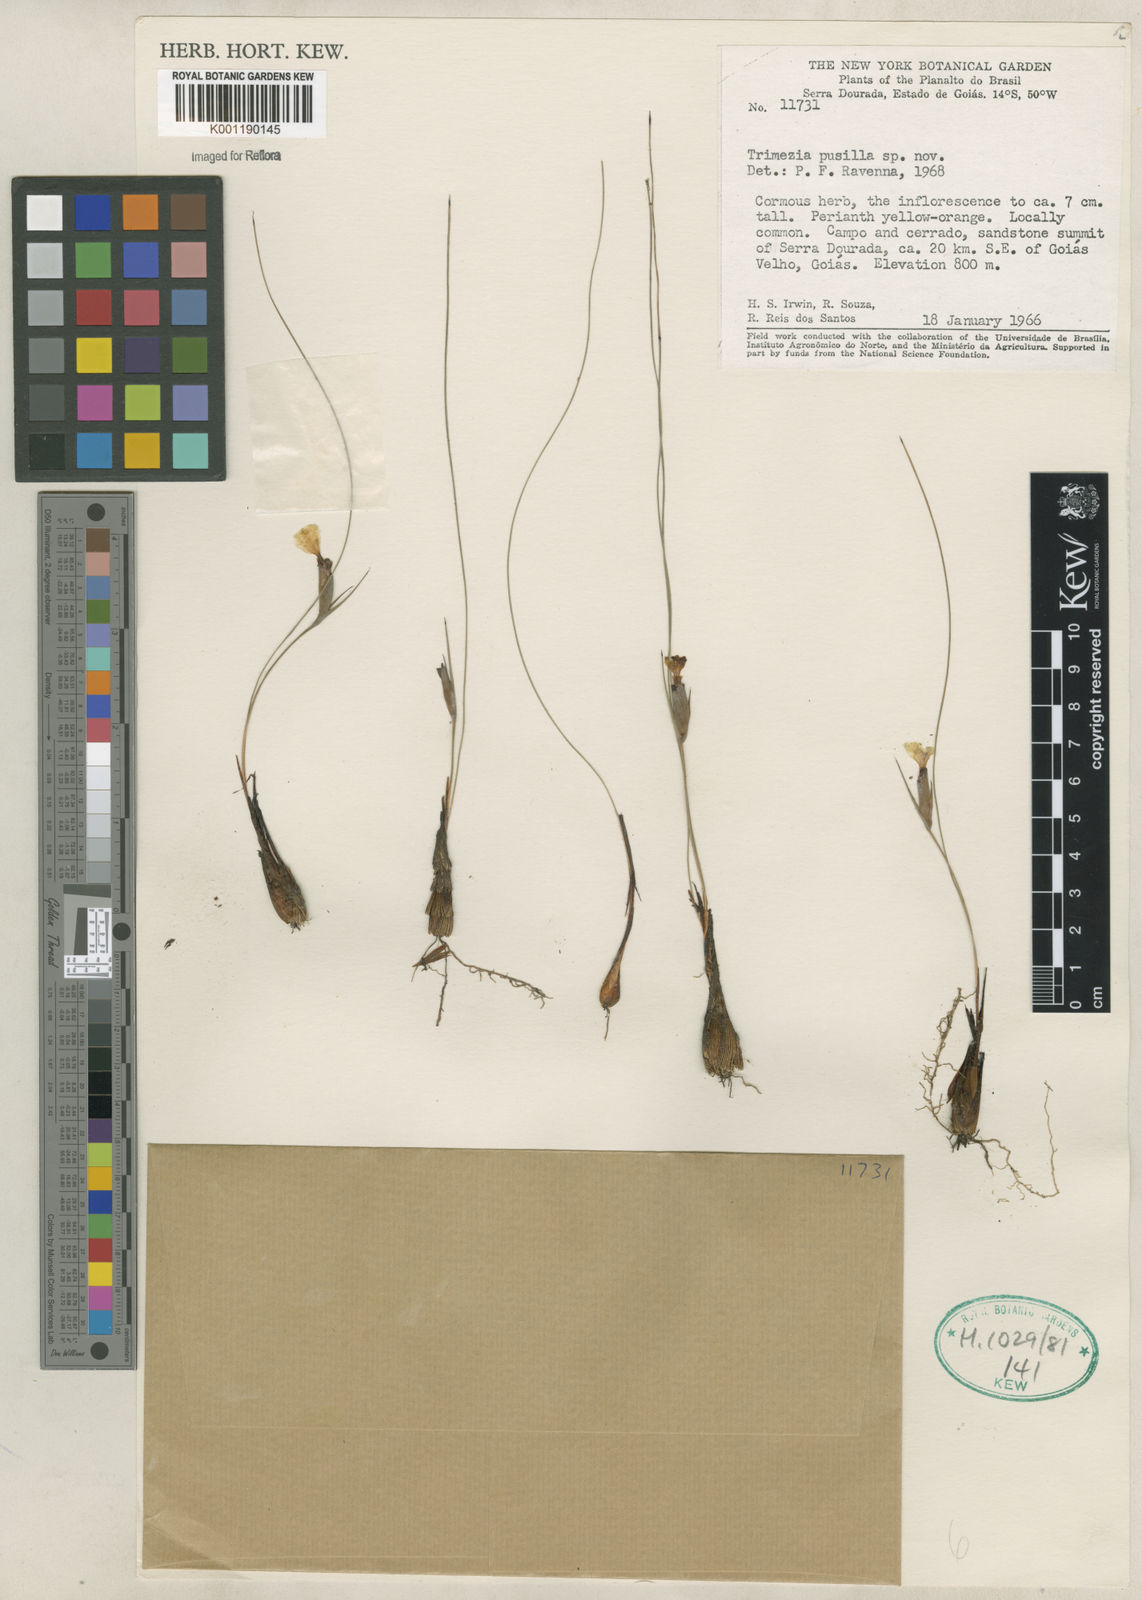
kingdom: Plantae
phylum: Tracheophyta
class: Liliopsida
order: Asparagales
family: Iridaceae
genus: Trimezia
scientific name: Trimezia
